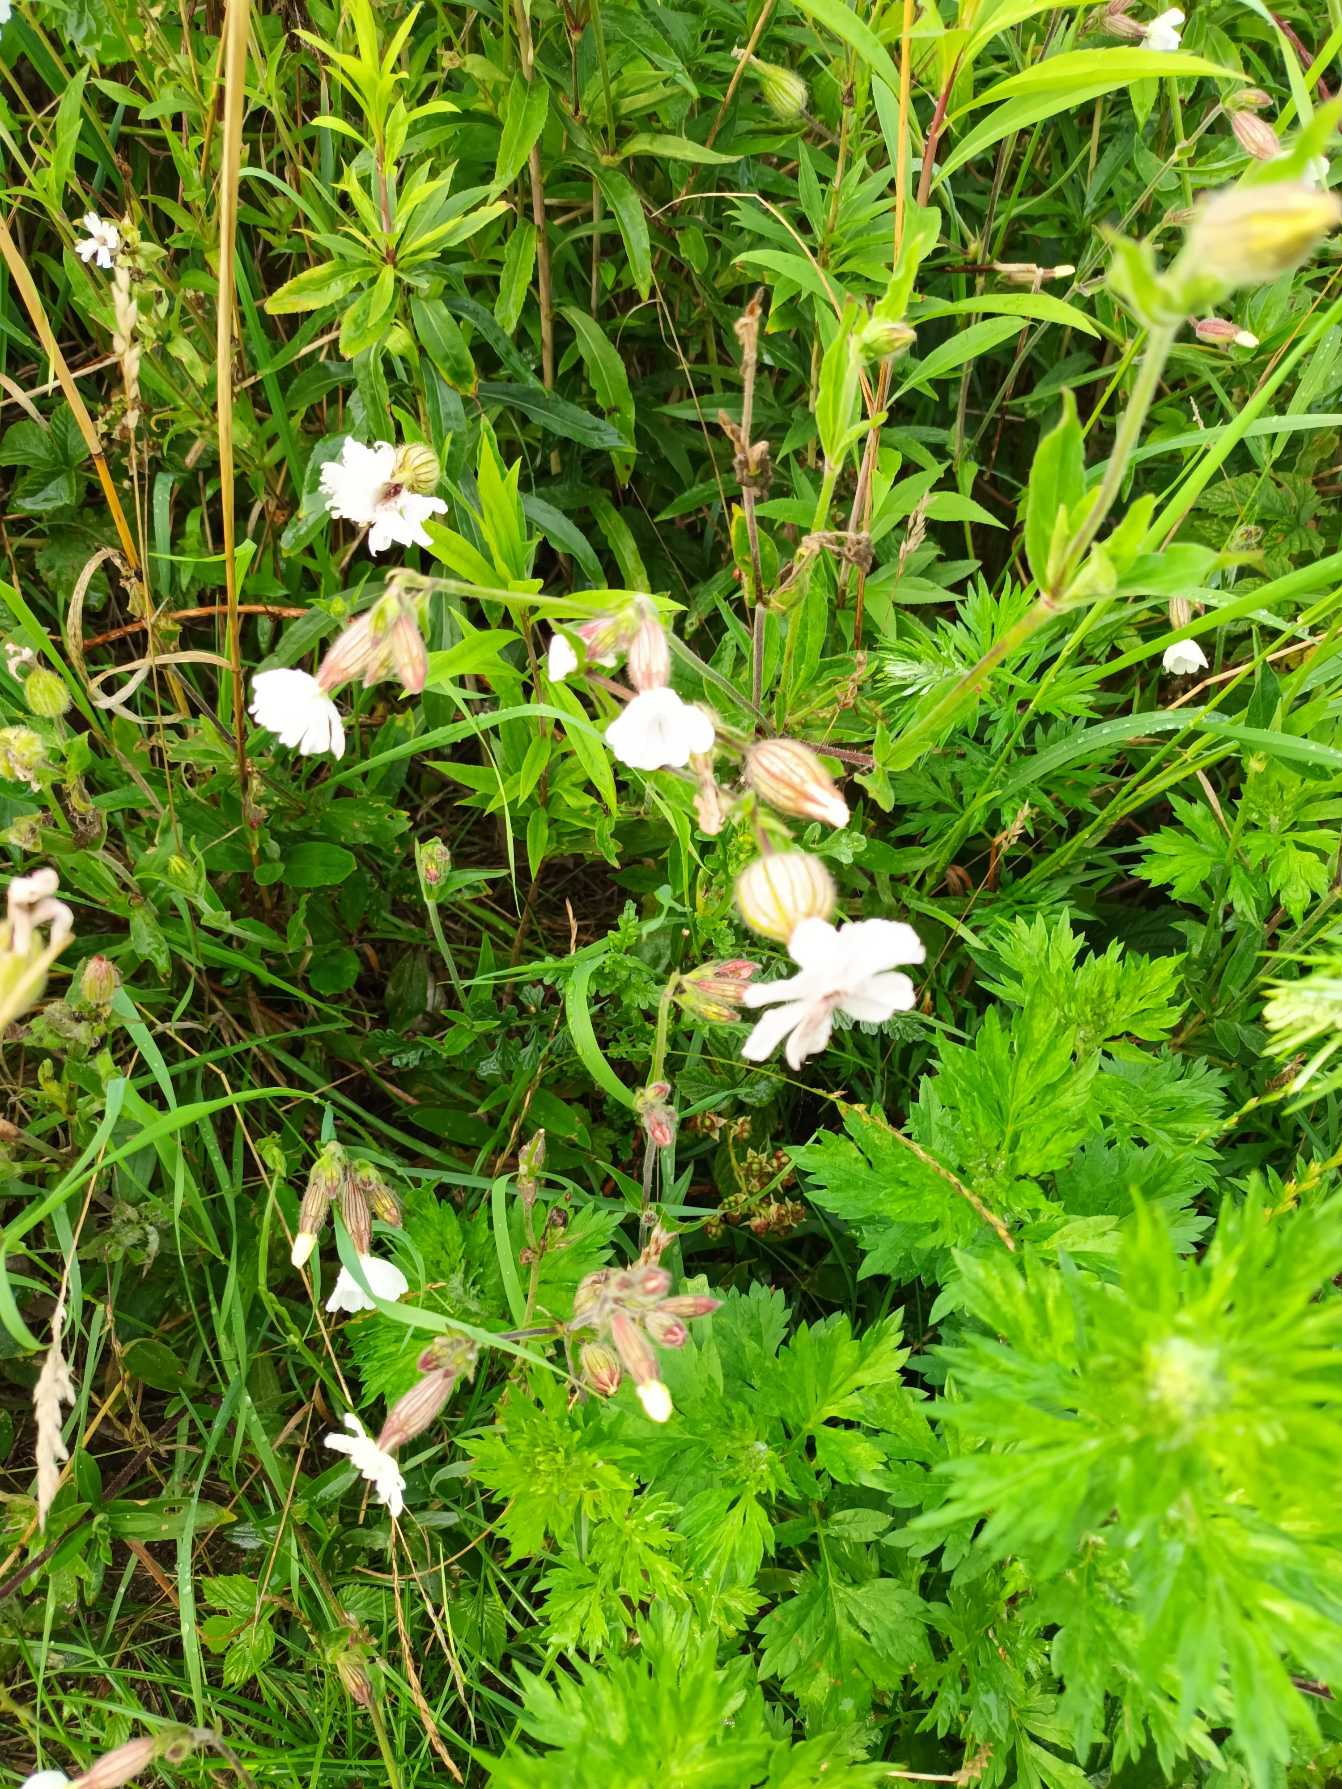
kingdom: Plantae
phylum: Tracheophyta
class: Magnoliopsida
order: Caryophyllales
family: Caryophyllaceae
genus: Silene
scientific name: Silene latifolia
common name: Aftenpragtstjerne
